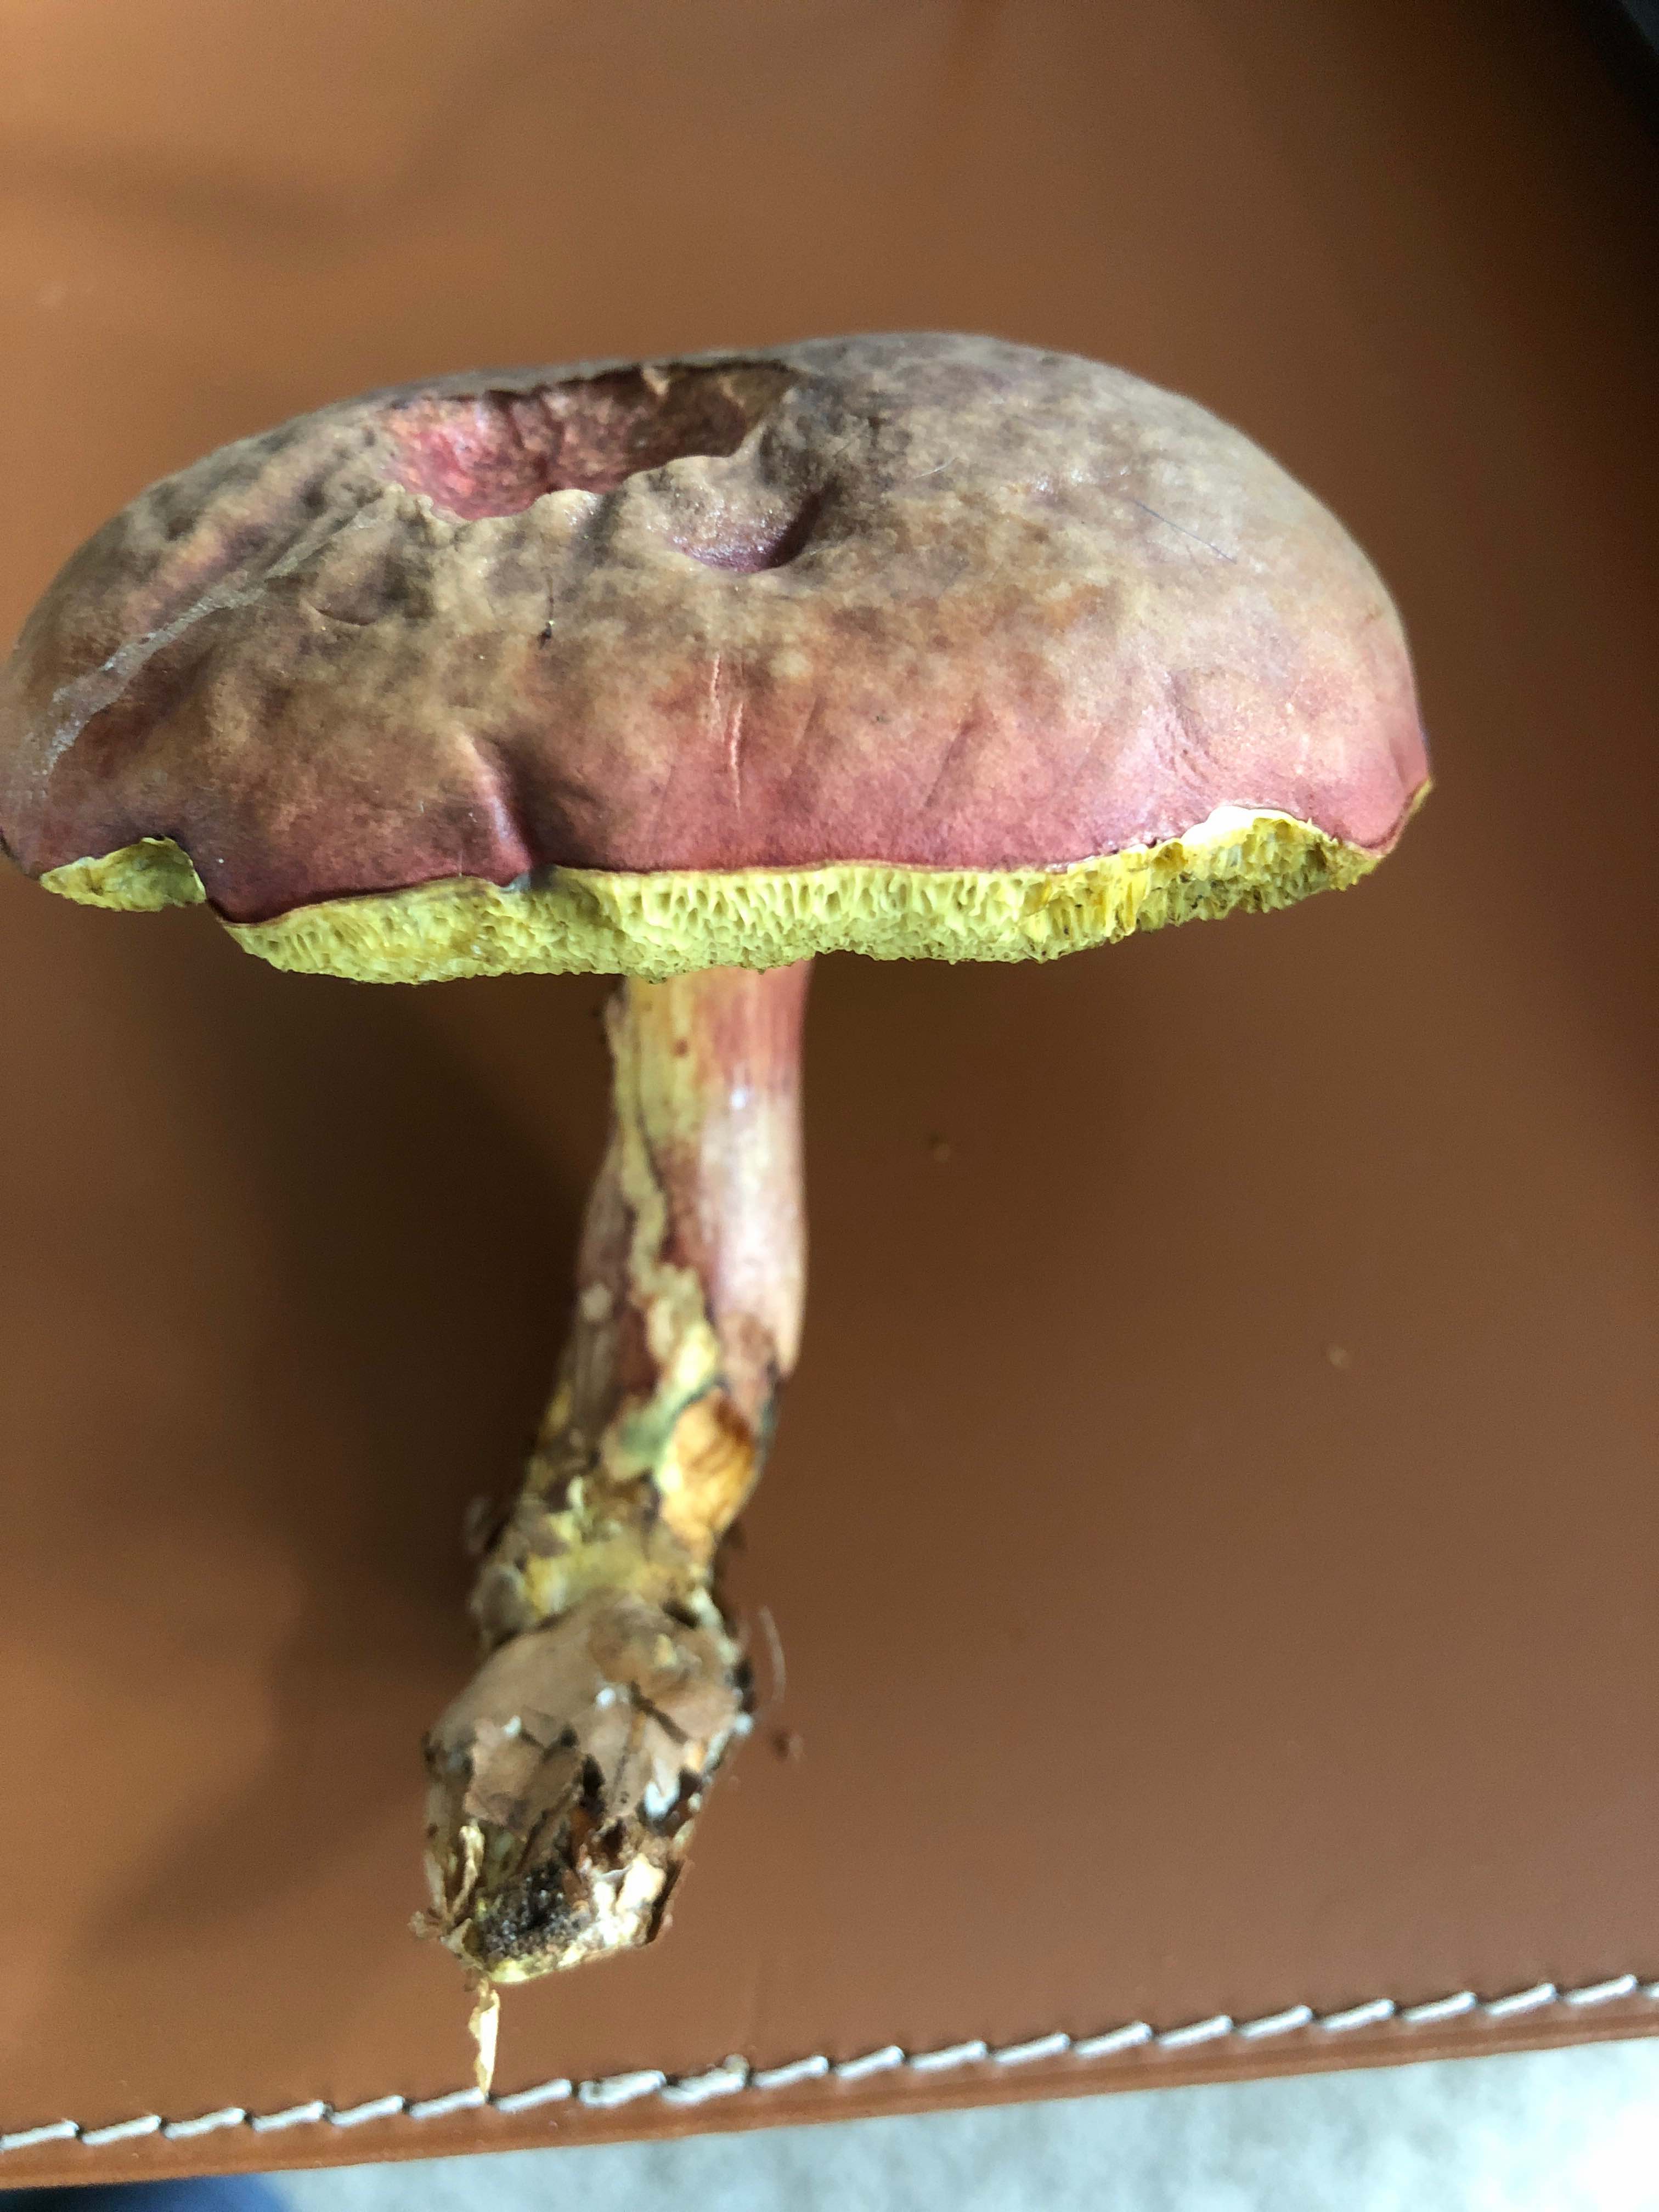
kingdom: Fungi
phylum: Basidiomycota
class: Agaricomycetes
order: Boletales
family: Boletaceae
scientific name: Boletaceae
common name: rørhatfamilien
